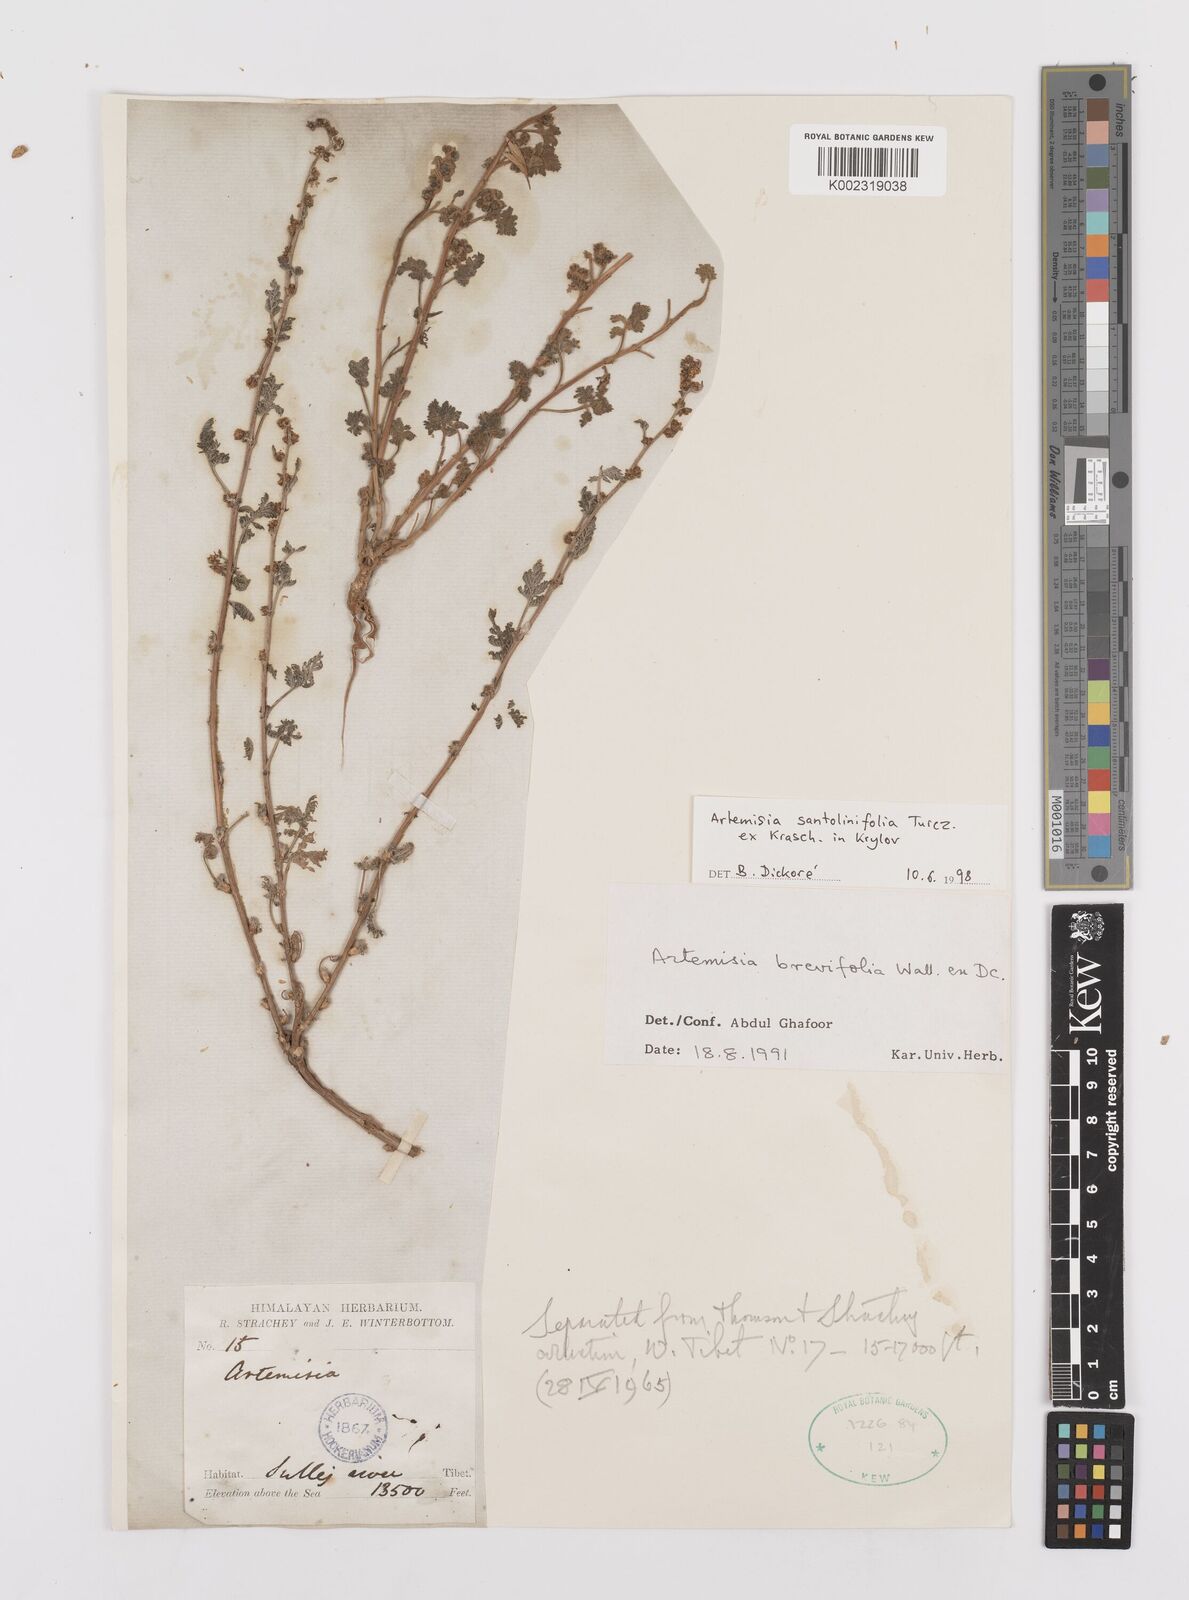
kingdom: Plantae
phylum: Tracheophyta
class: Magnoliopsida
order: Asterales
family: Asteraceae
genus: Artemisia
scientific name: Artemisia brevifolia
